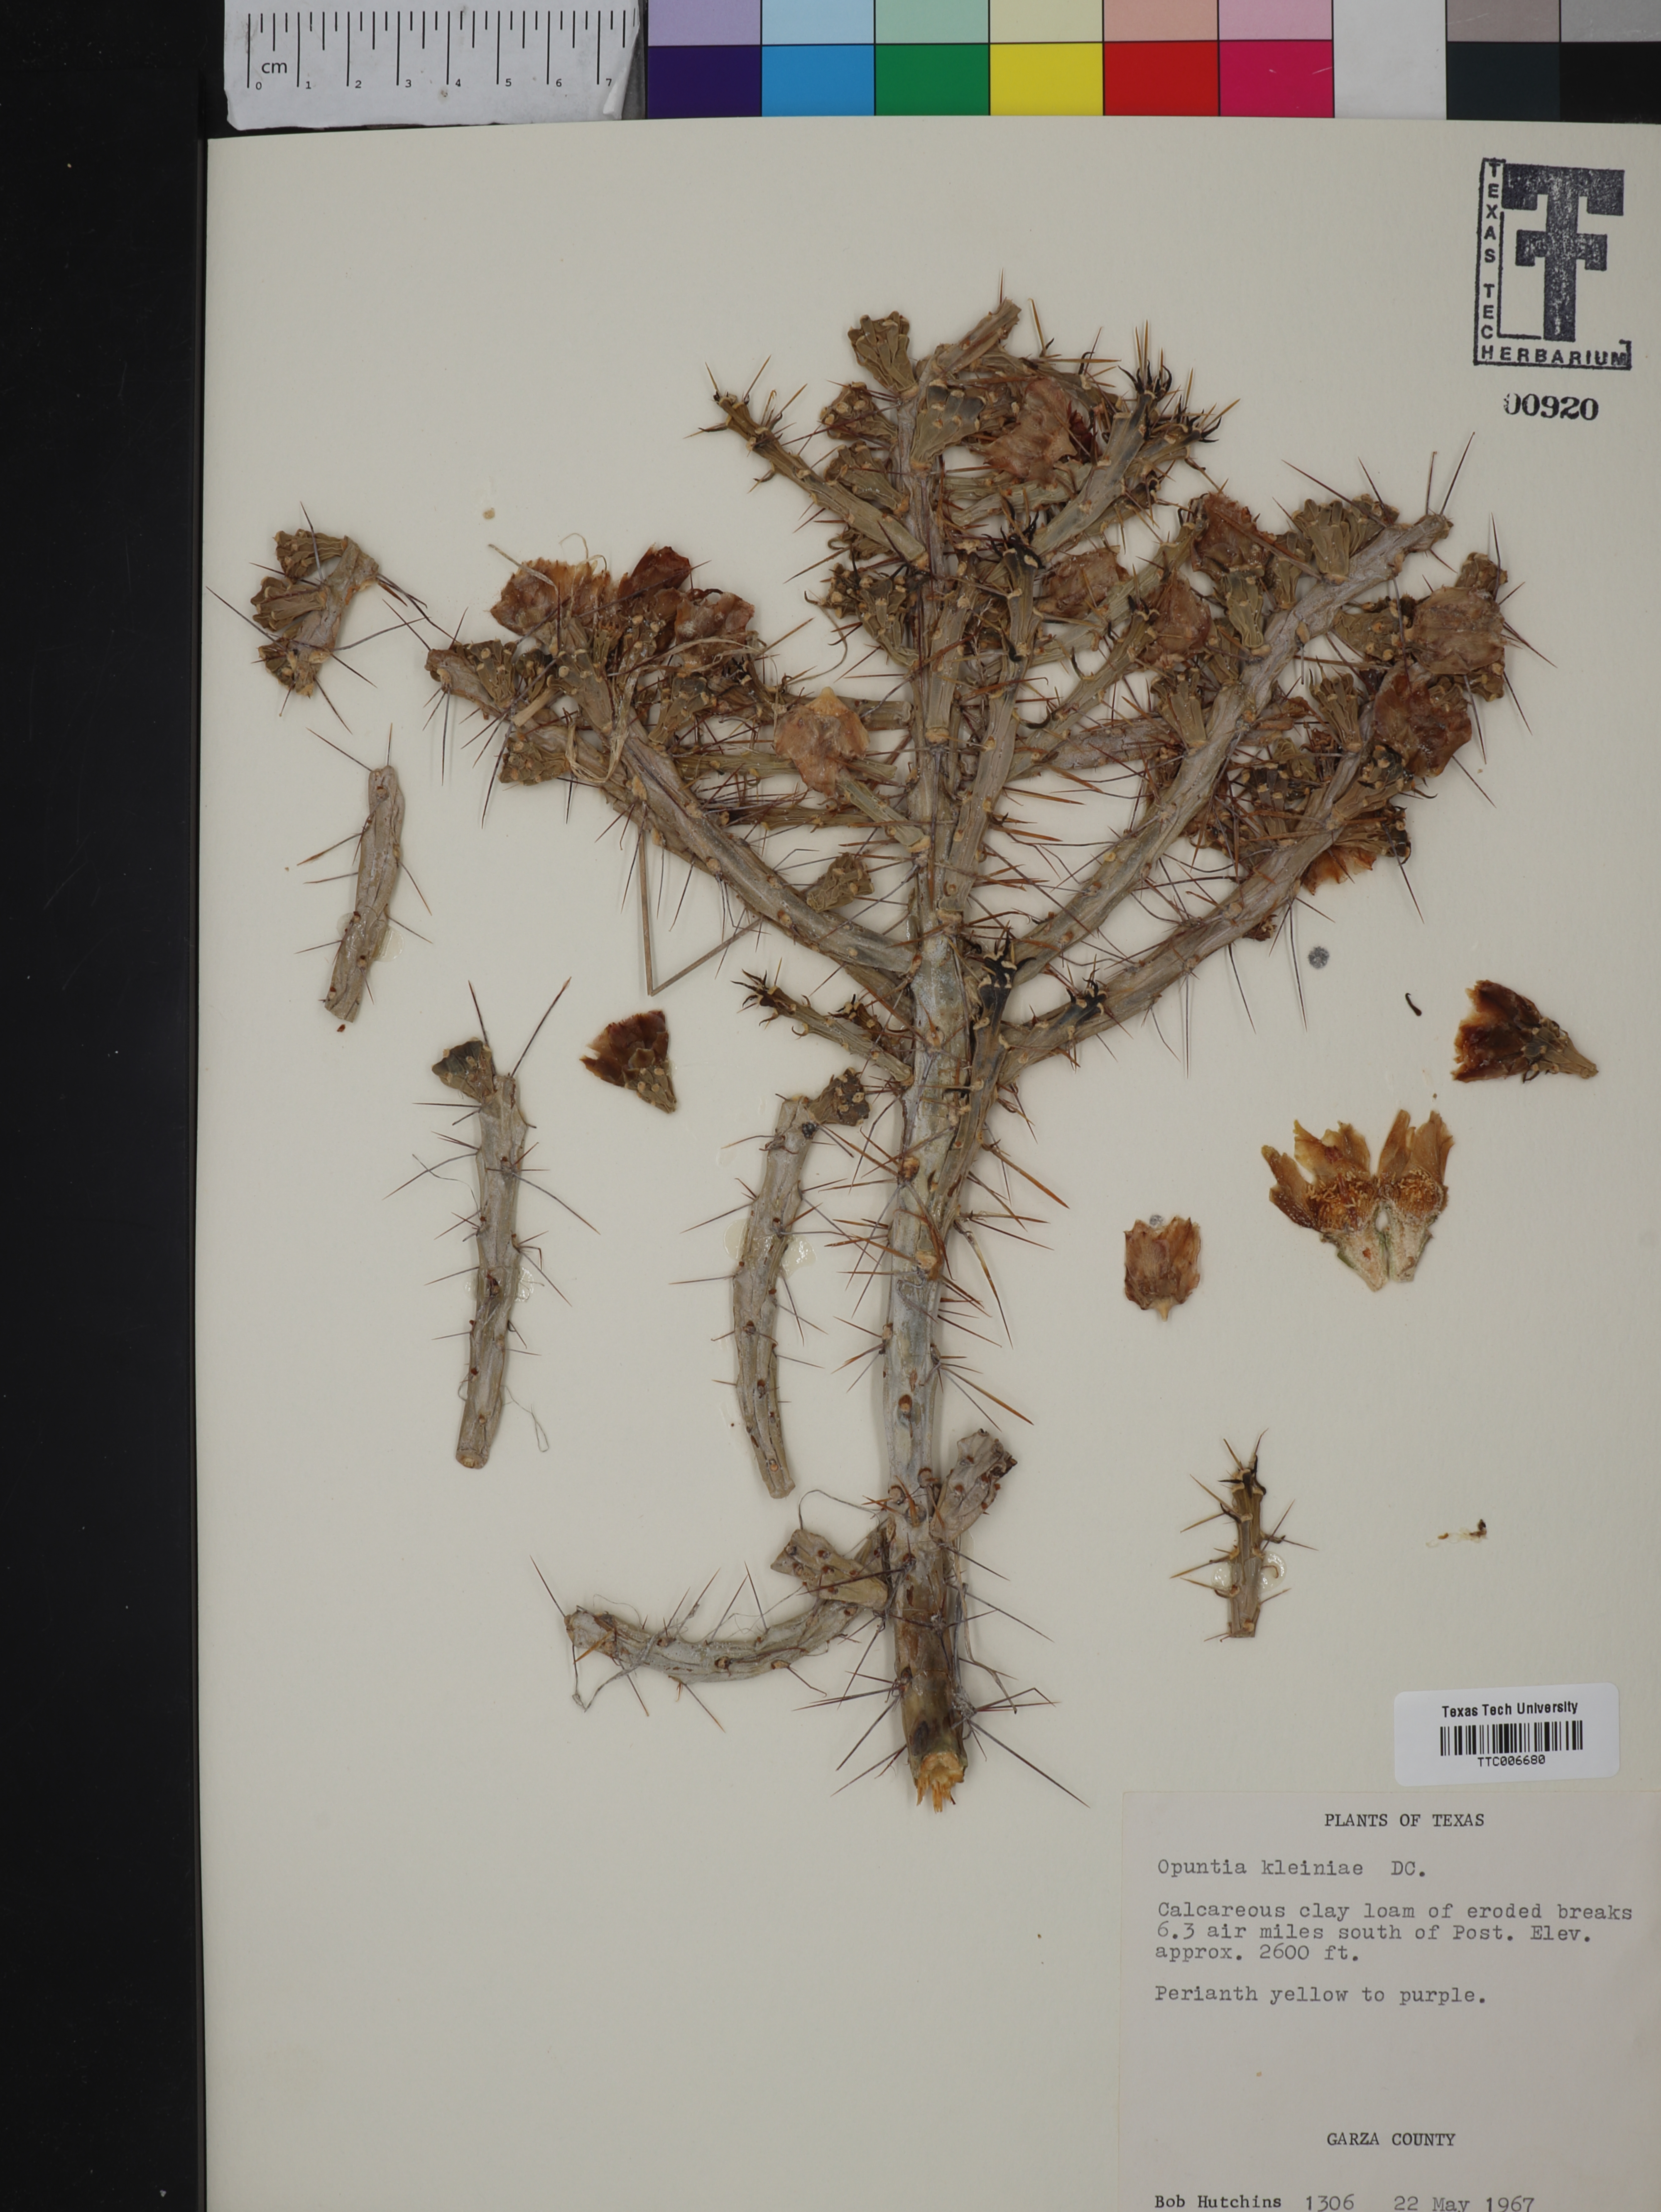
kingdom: Plantae
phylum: Tracheophyta
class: Magnoliopsida
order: Caryophyllales
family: Cactaceae
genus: Cylindropuntia
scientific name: Cylindropuntia kleiniae
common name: Klein's cholla
